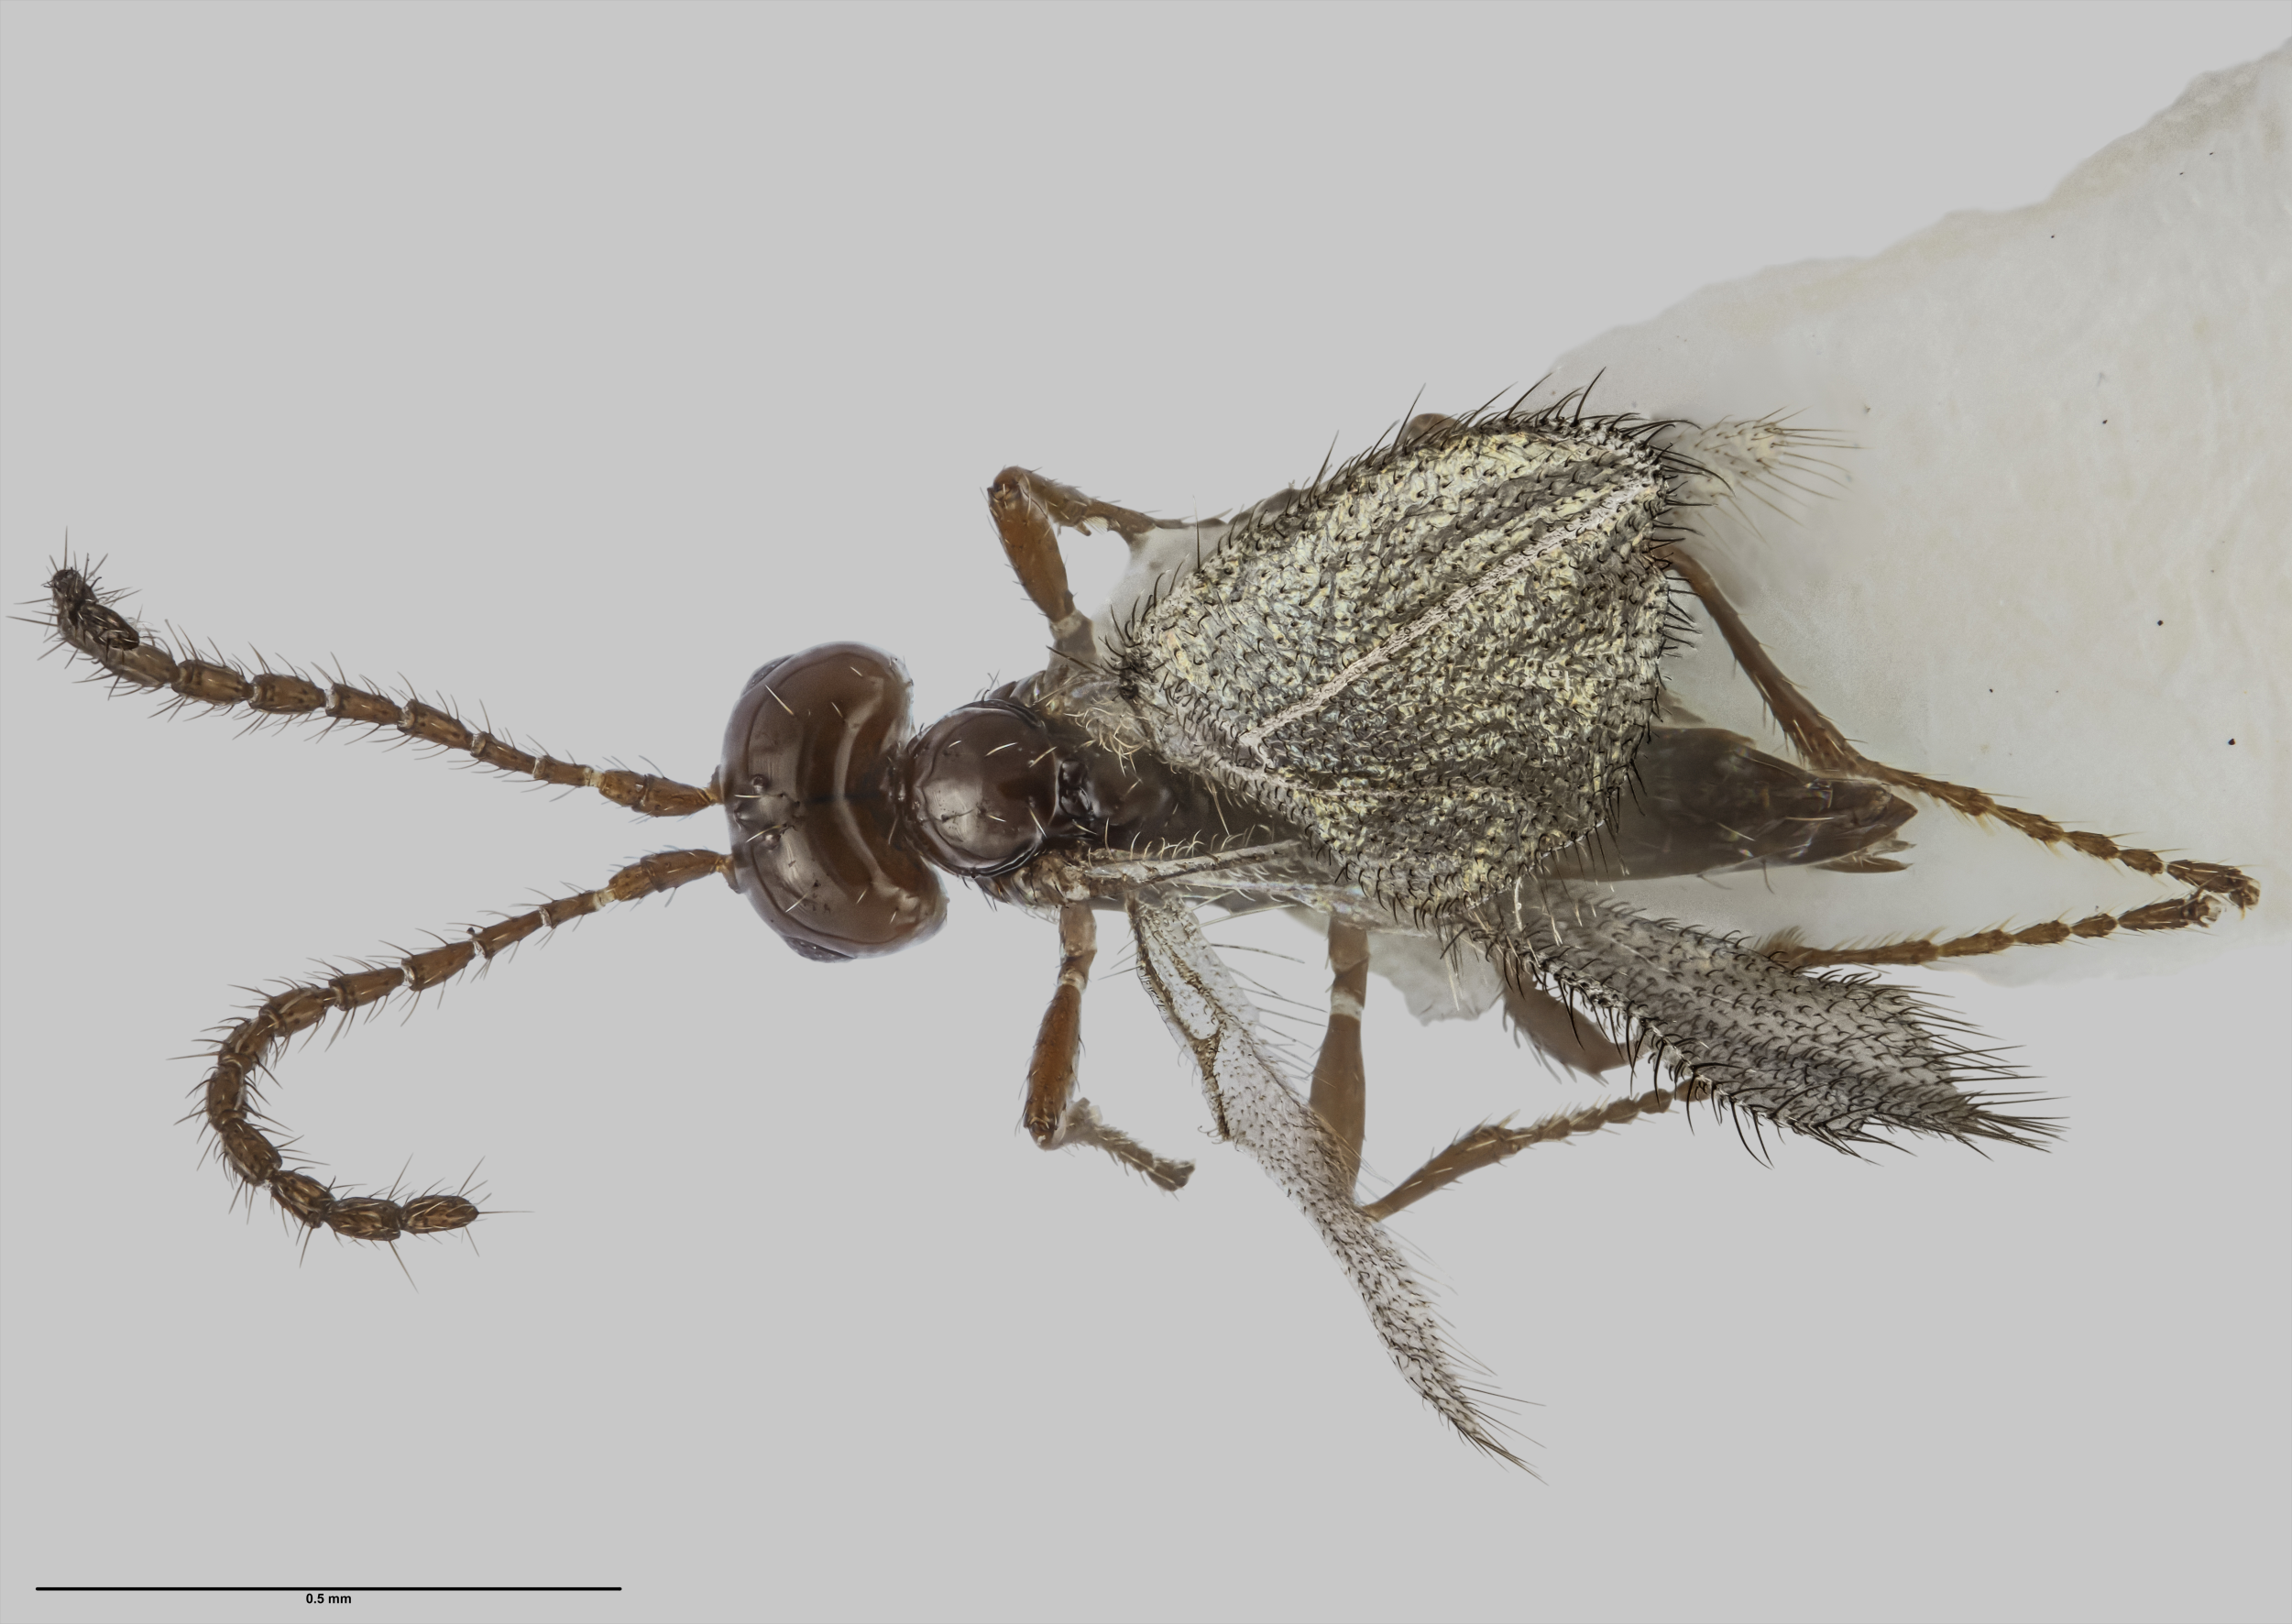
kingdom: Animalia
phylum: Arthropoda
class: Insecta
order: Hymenoptera
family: Braconidae
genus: Aspilota
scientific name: Aspilota albertica
